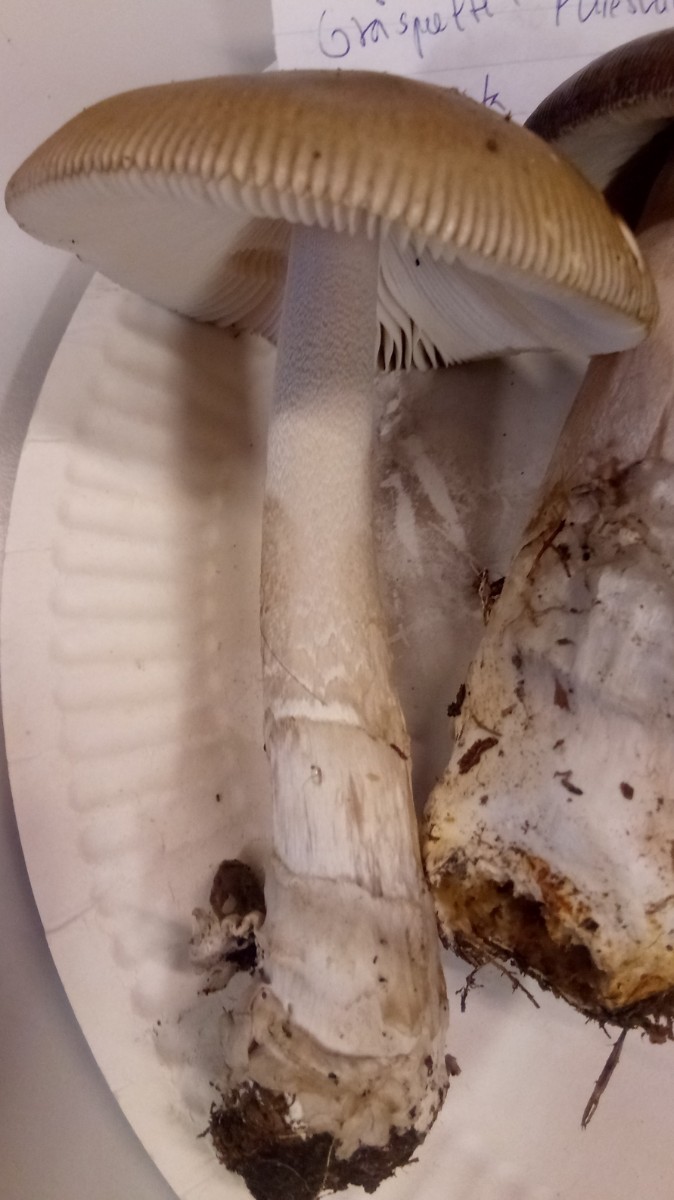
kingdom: Fungi
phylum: Basidiomycota
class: Agaricomycetes
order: Agaricales
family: Amanitaceae
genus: Amanita
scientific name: Amanita submembranacea
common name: gråspættet kam-fluesvamp
